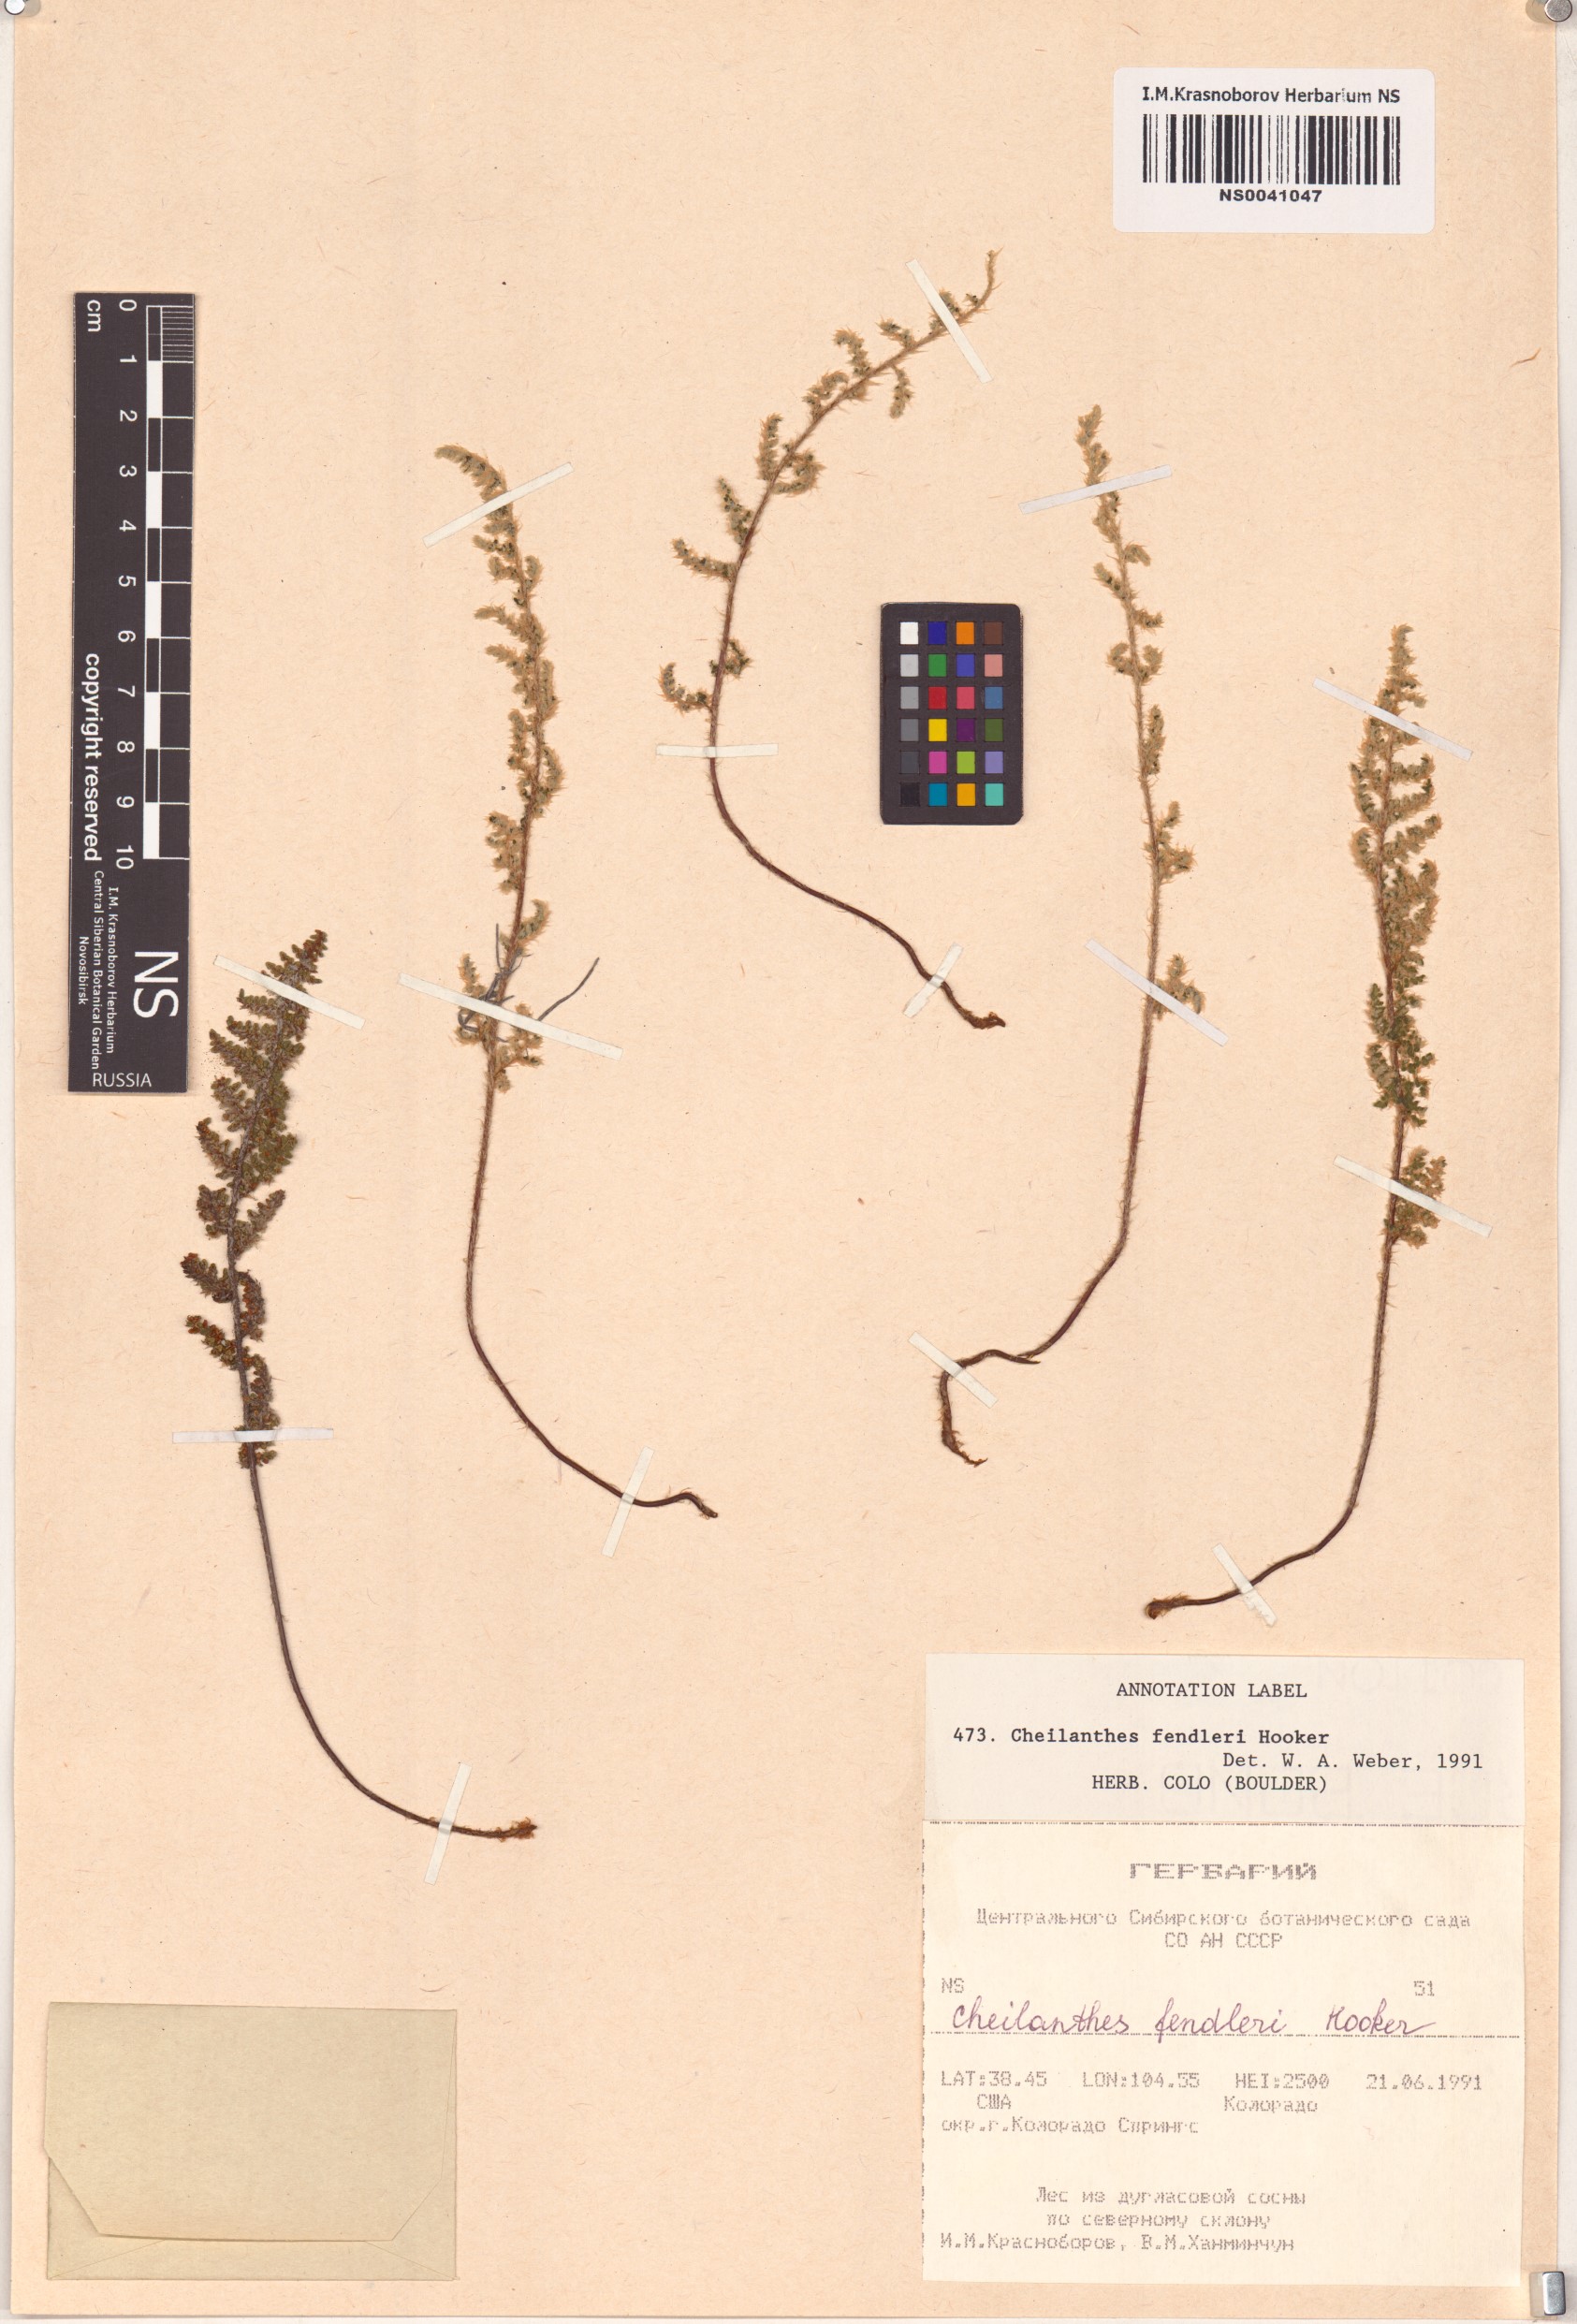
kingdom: Plantae
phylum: Tracheophyta
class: Polypodiopsida
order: Polypodiales
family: Pteridaceae
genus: Myriopteris
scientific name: Myriopteris fendleri
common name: Fendler's lip fern
